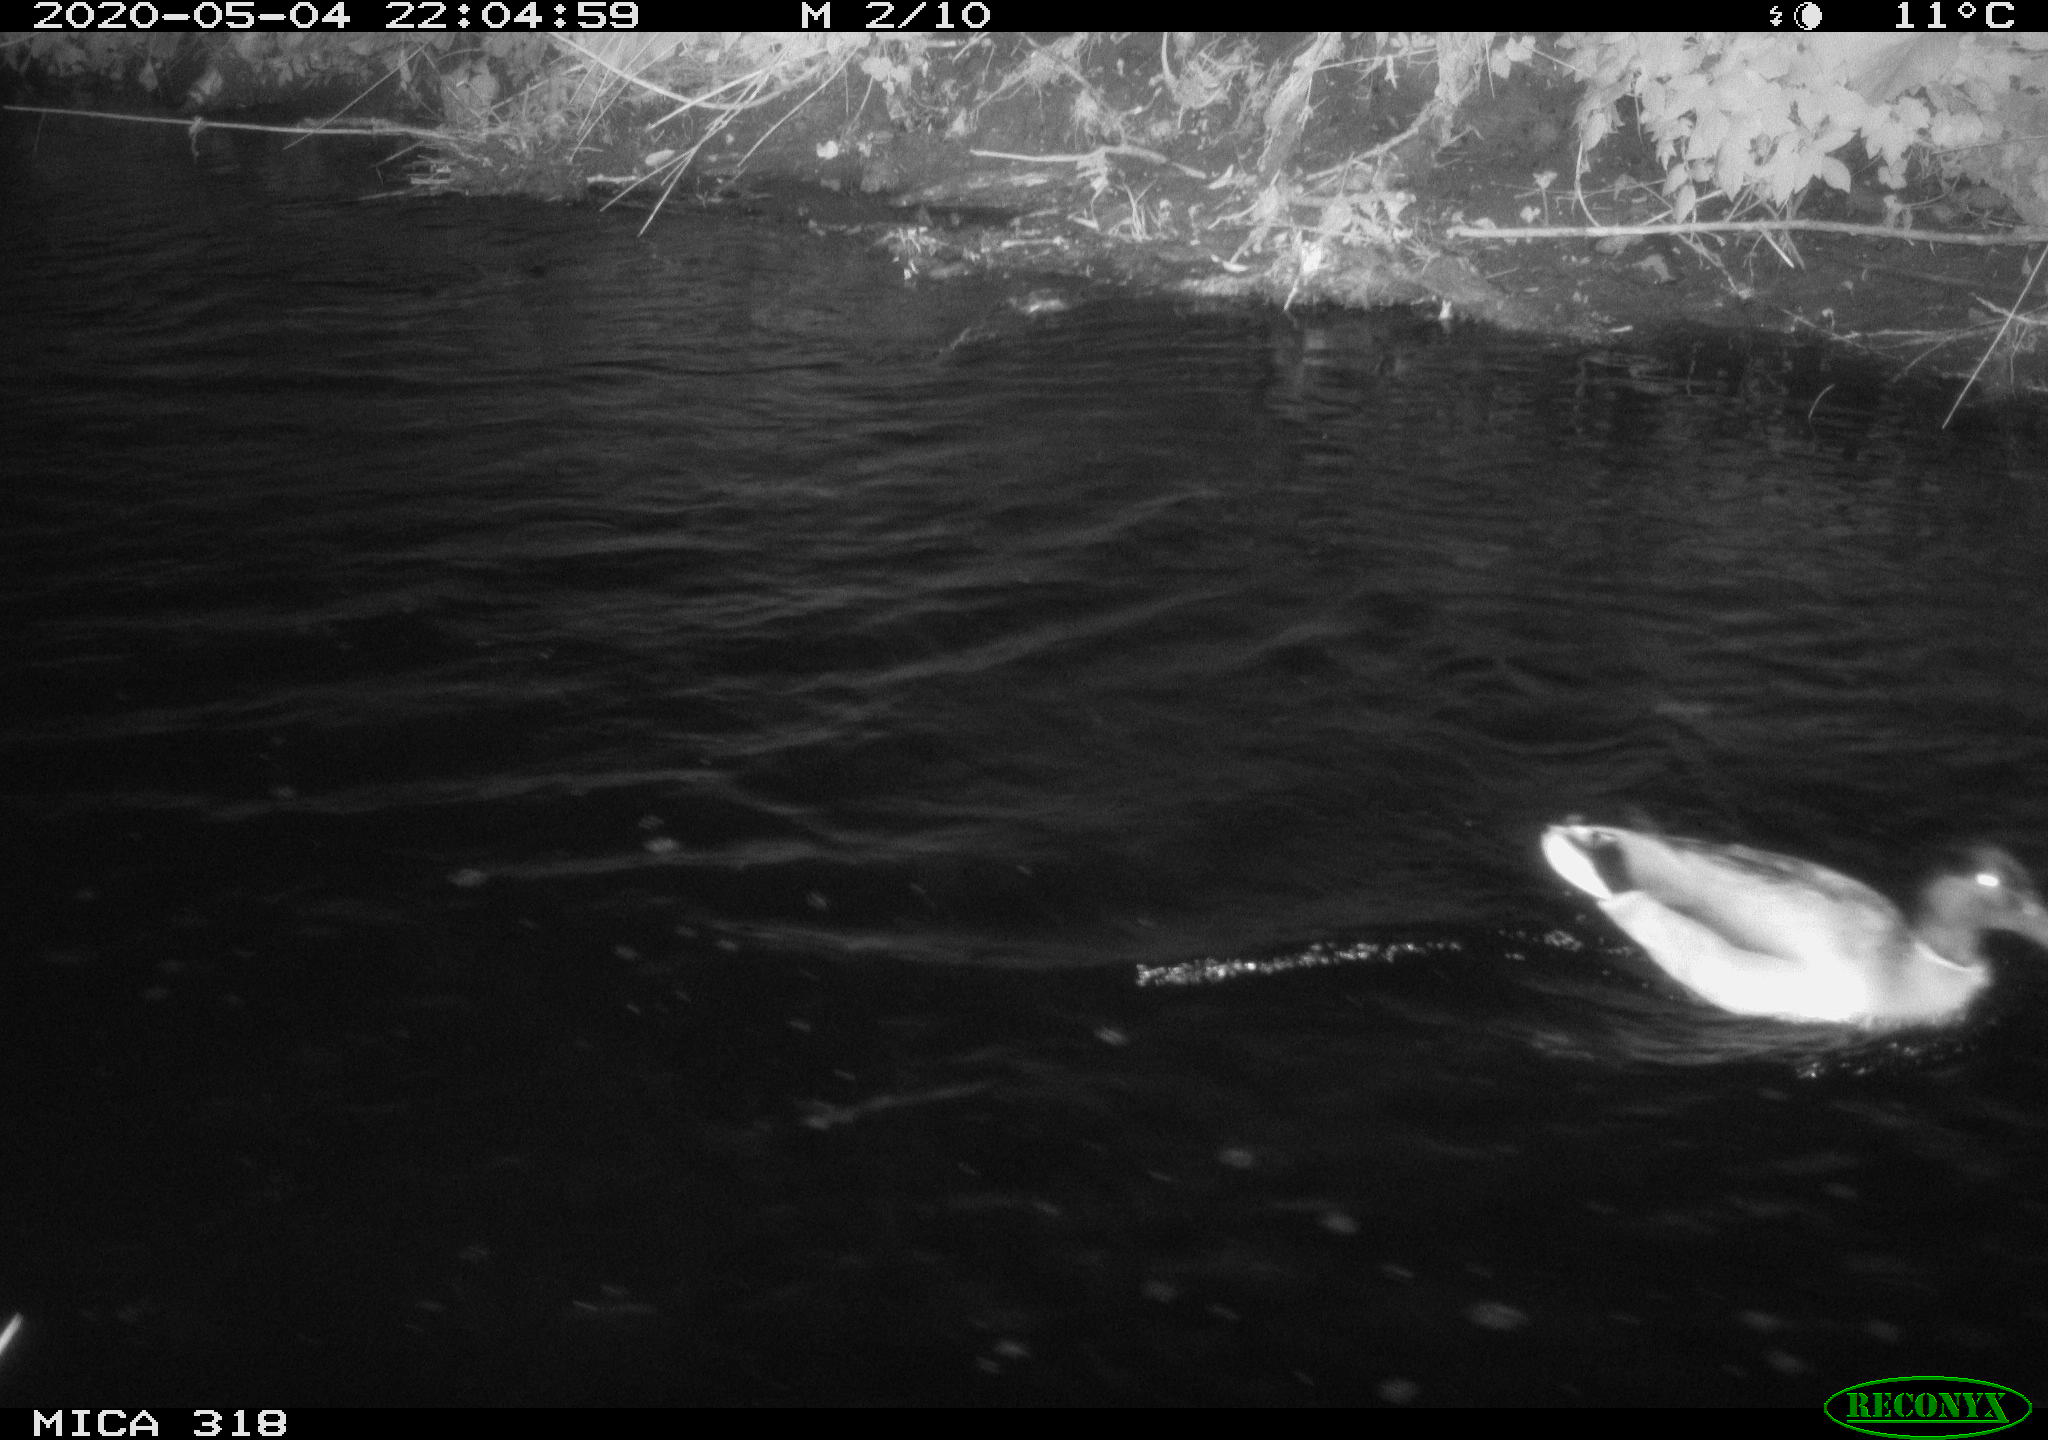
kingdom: Animalia
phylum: Chordata
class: Aves
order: Anseriformes
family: Anatidae
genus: Anas
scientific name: Anas platyrhynchos
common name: Mallard
